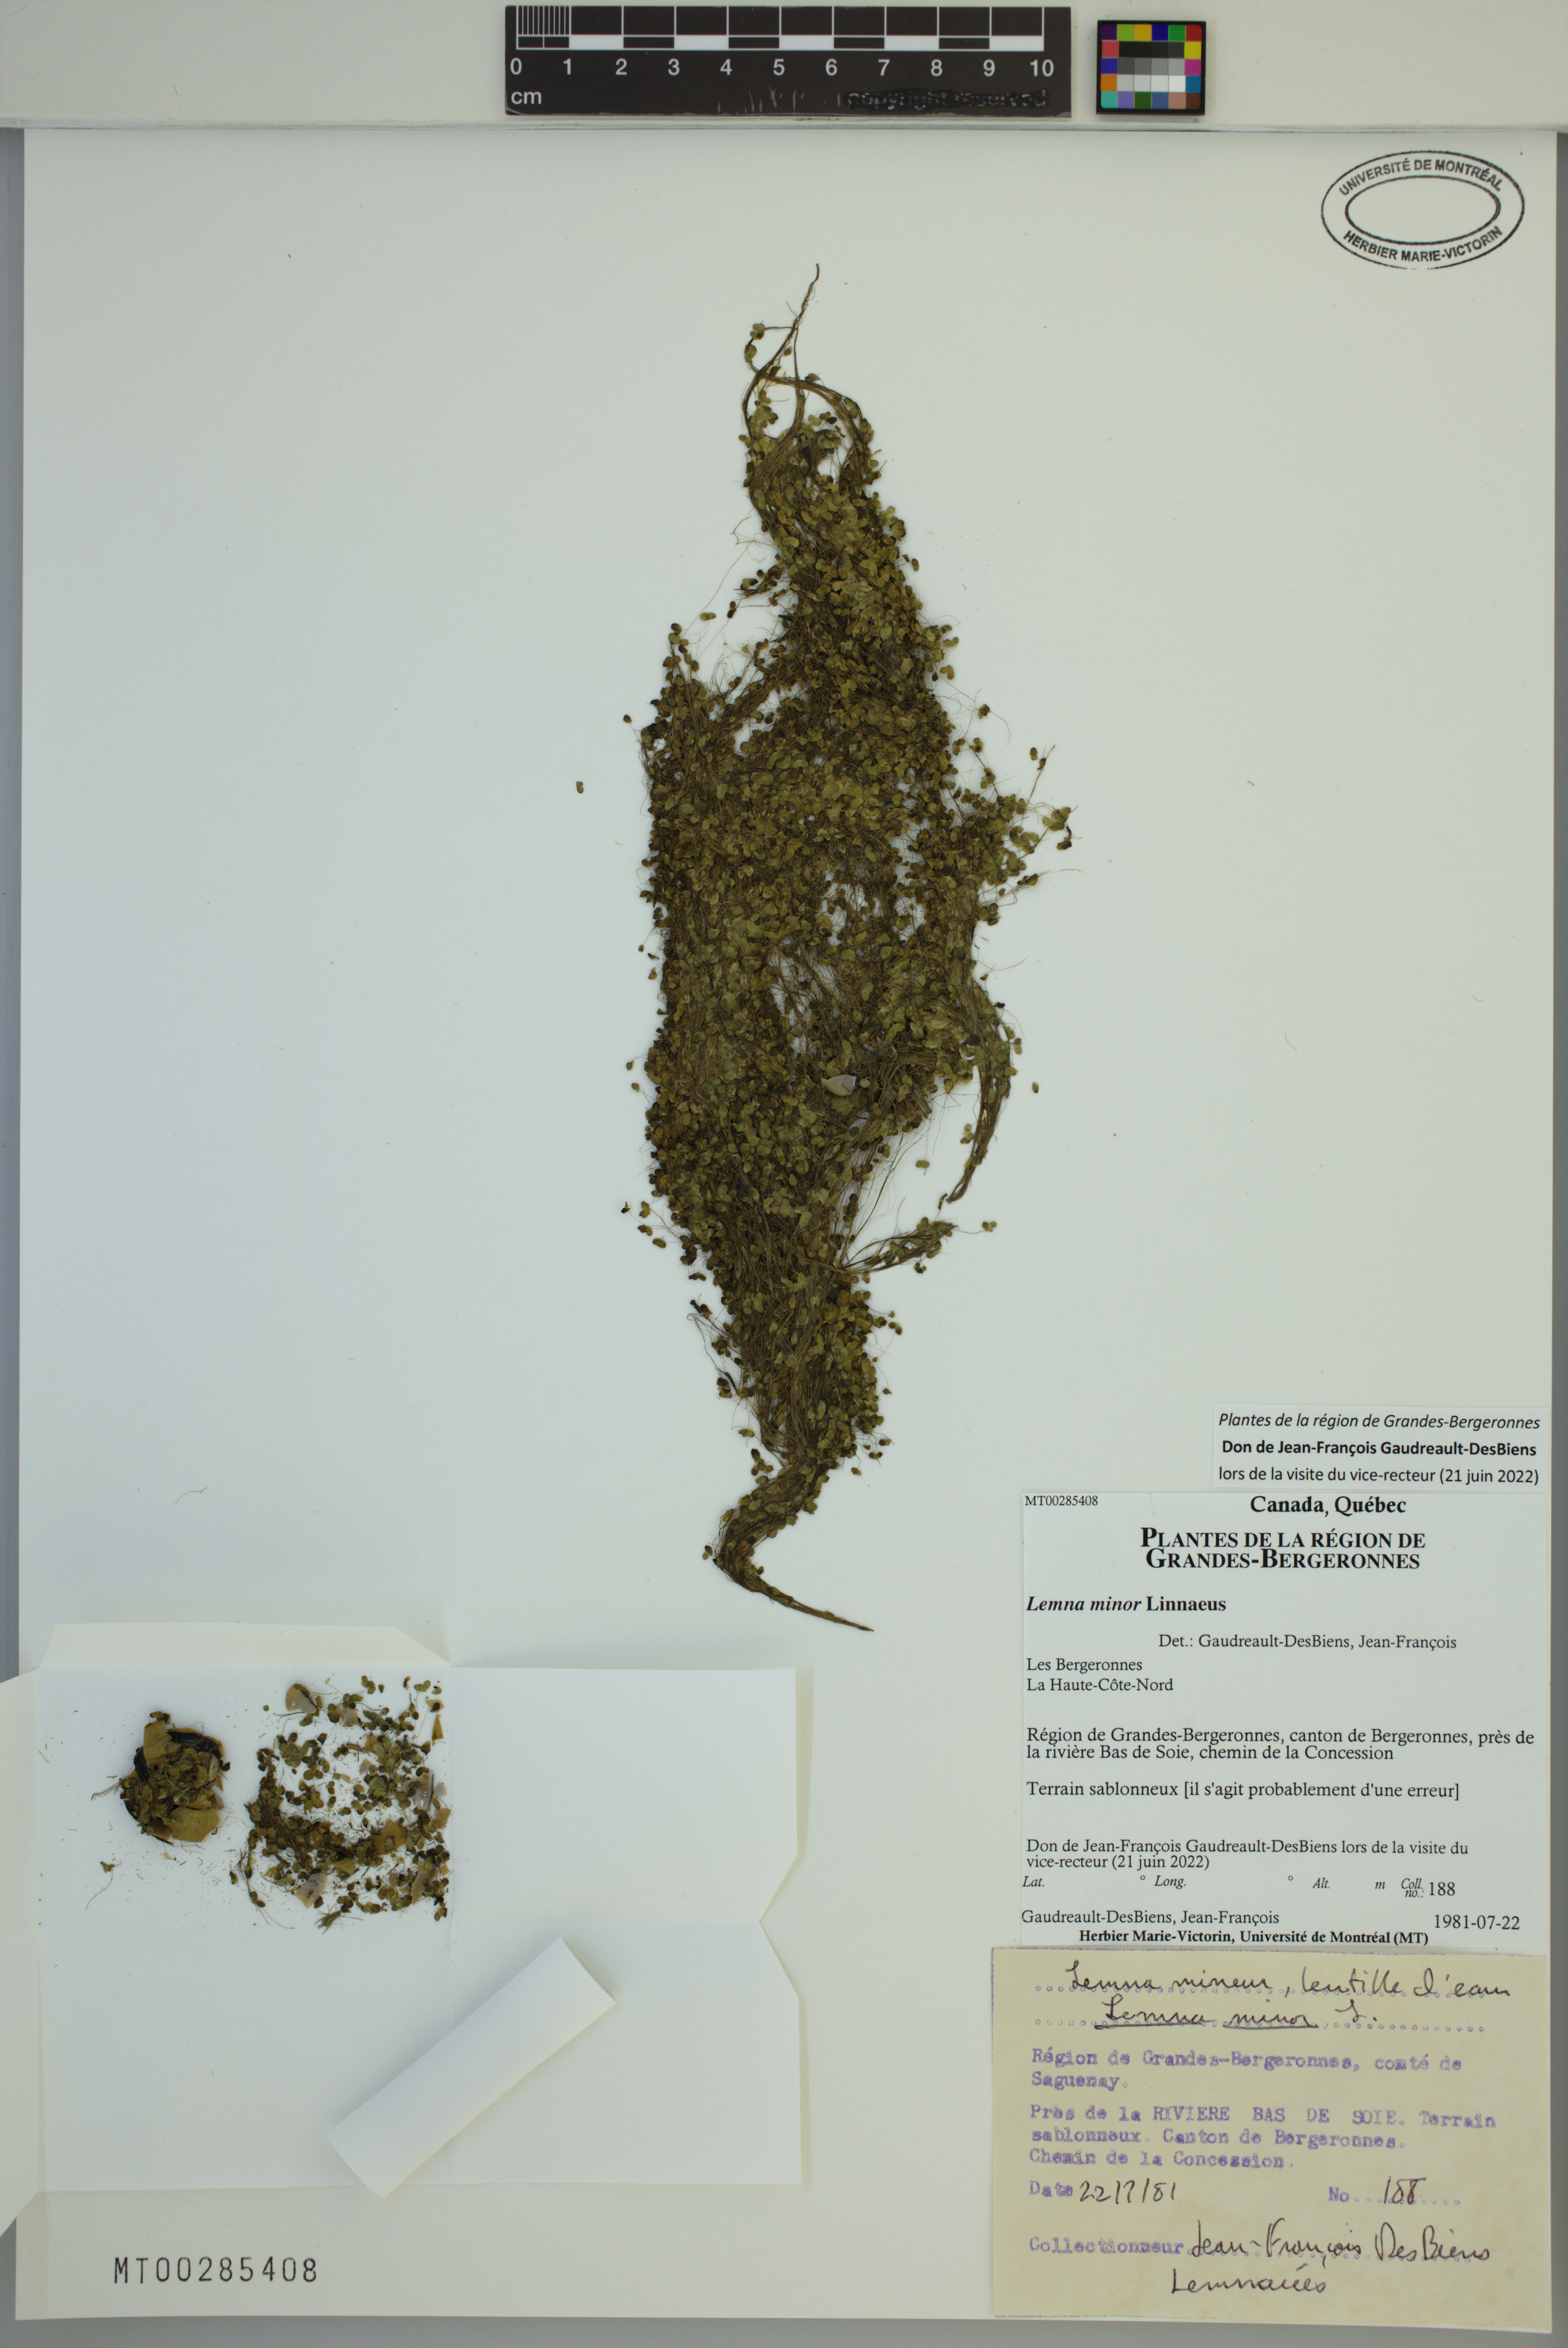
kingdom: Plantae
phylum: Tracheophyta
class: Liliopsida
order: Alismatales
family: Araceae
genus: Lemna
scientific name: Lemna minor
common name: Common duckweed
